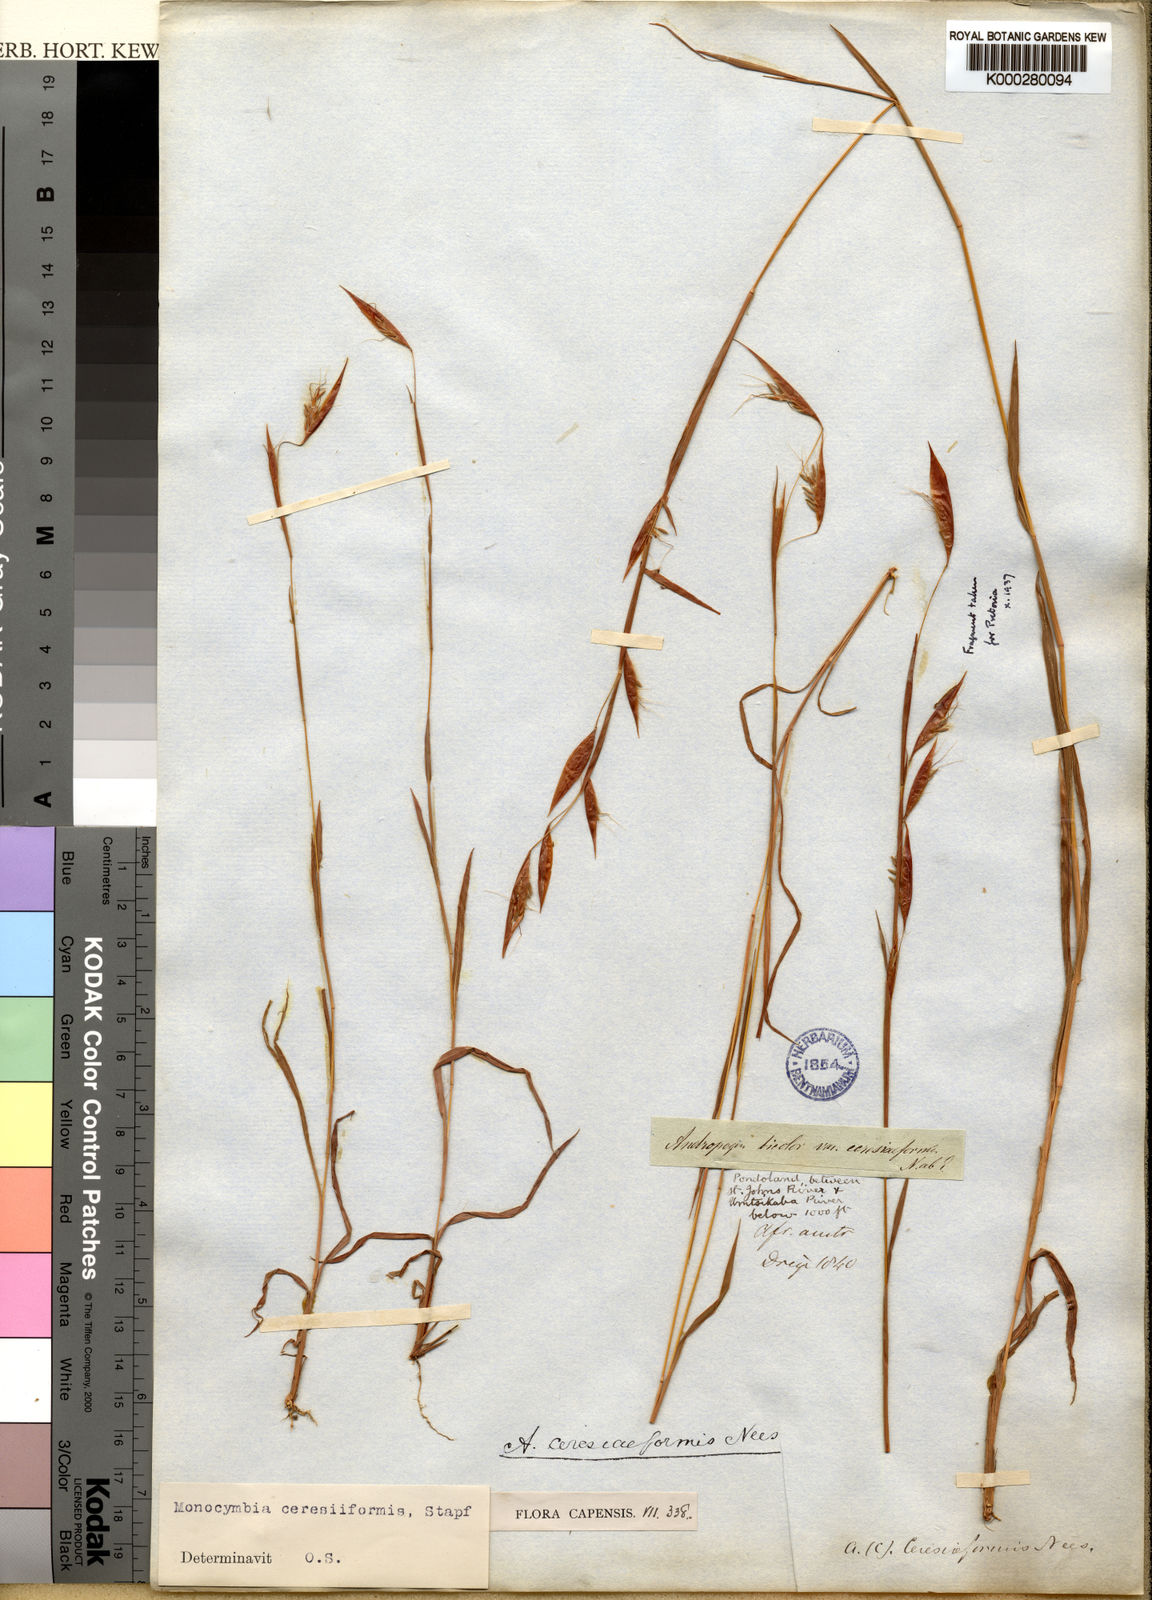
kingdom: Plantae
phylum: Tracheophyta
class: Liliopsida
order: Poales
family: Poaceae
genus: Monocymbium
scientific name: Monocymbium ceresiiforme
